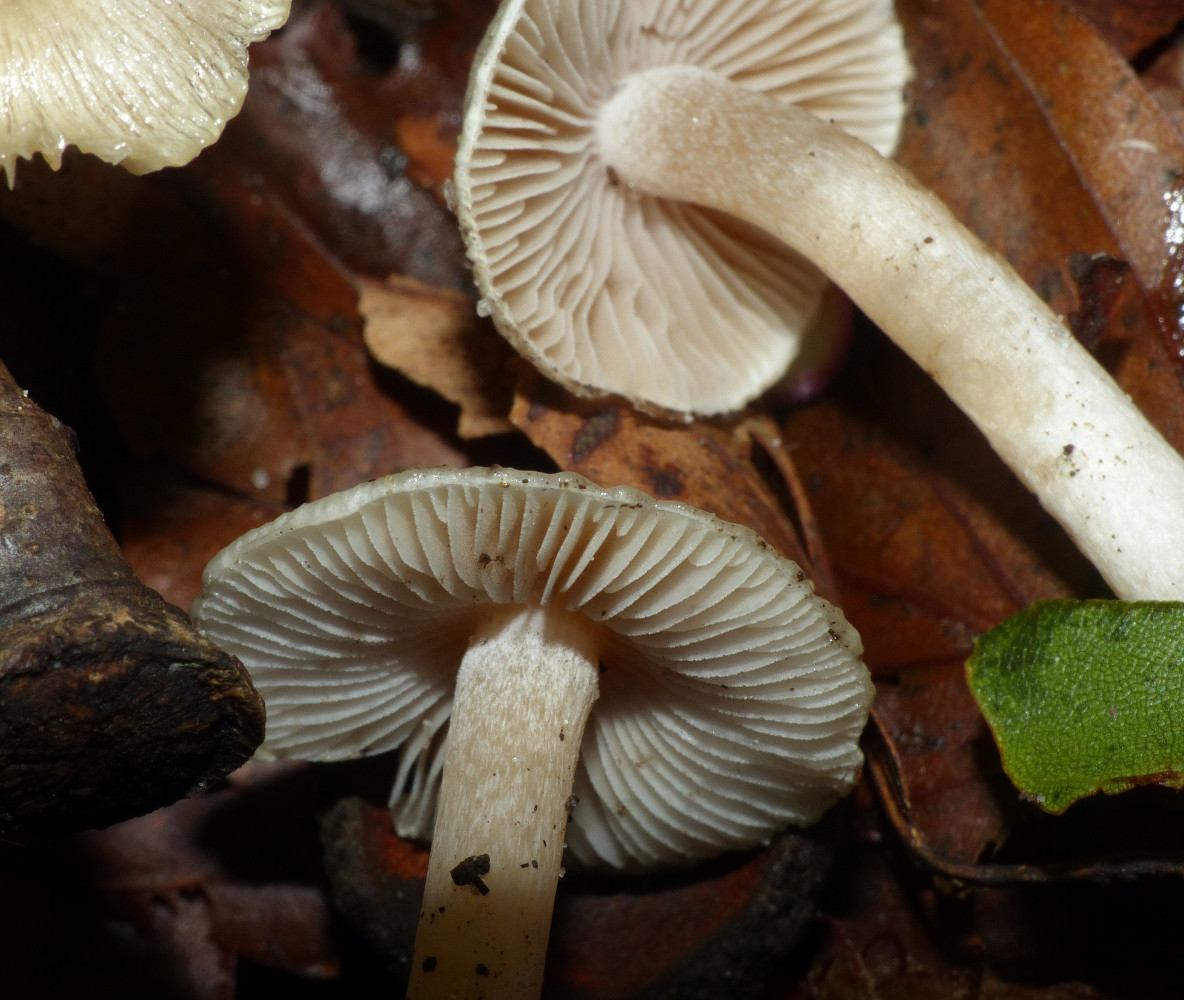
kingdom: Fungi
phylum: Basidiomycota
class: Agaricomycetes
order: Agaricales
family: Inocybaceae
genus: Inocybe
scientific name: Inocybe
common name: trævlhat
